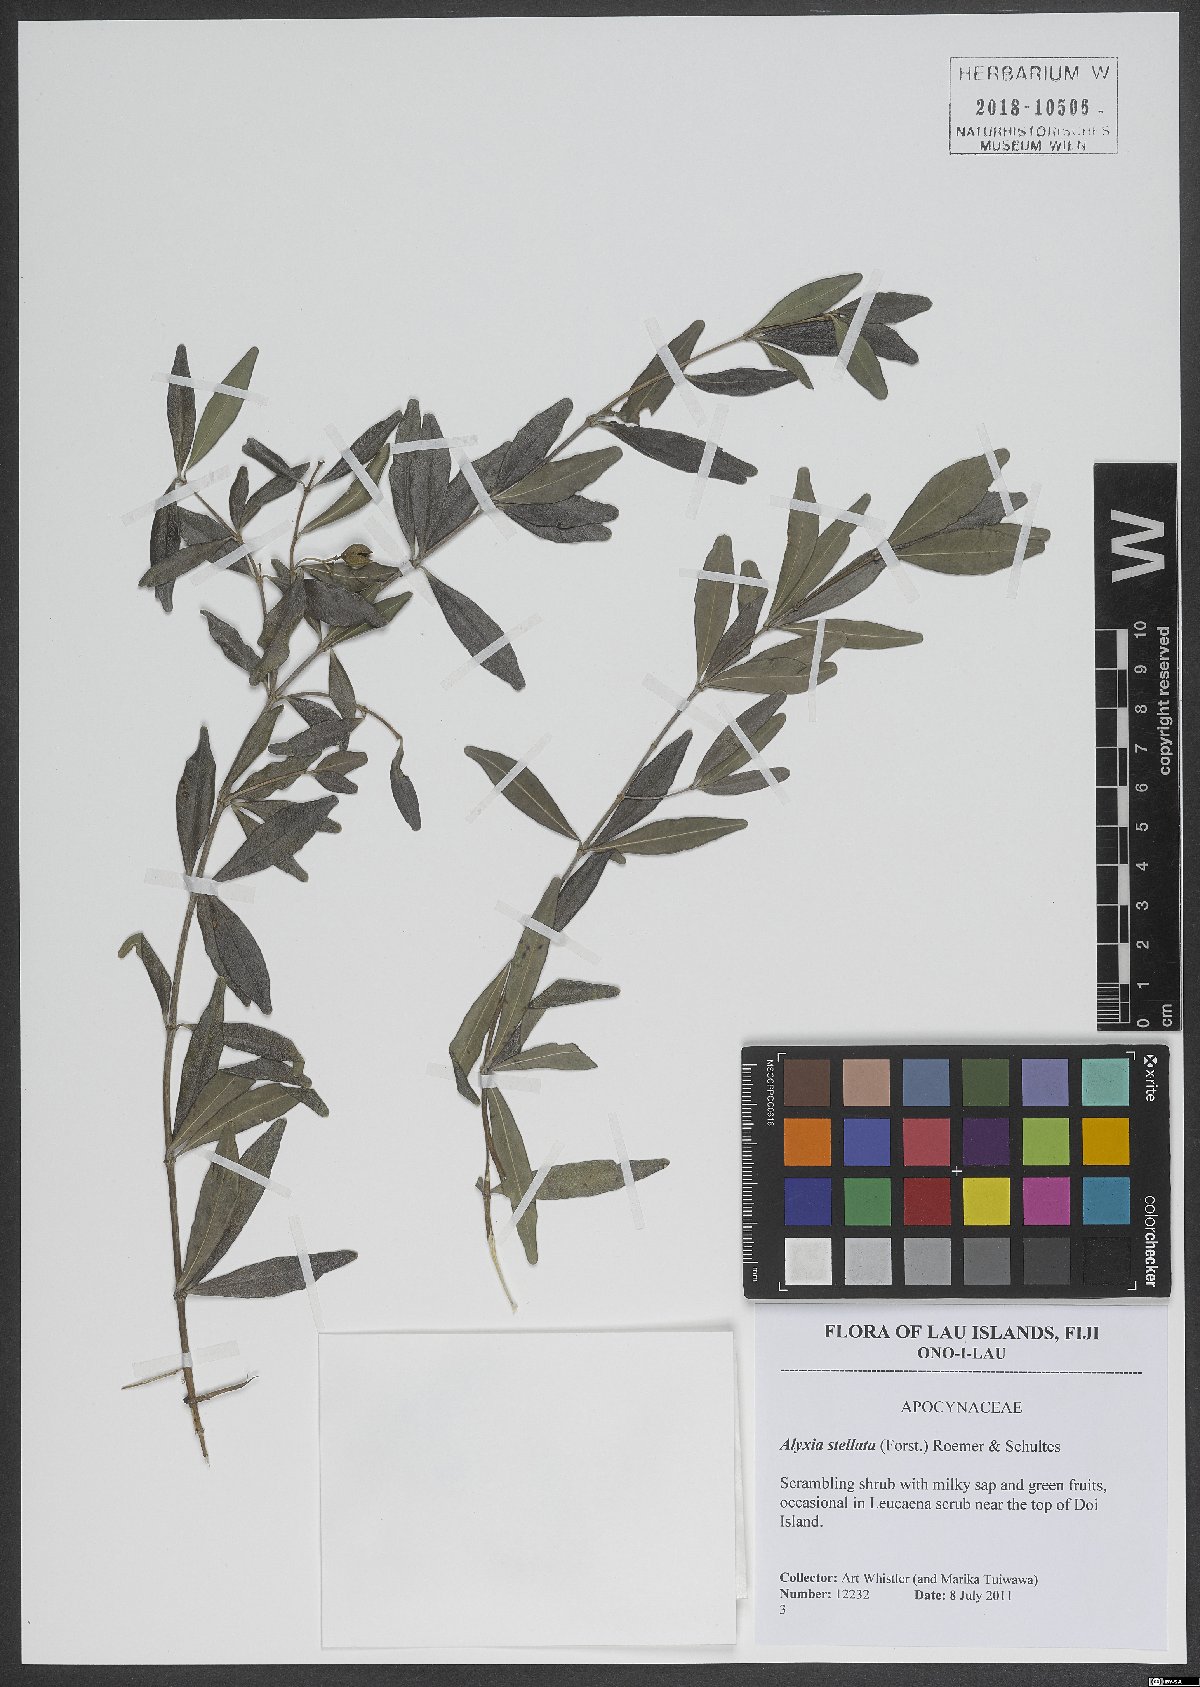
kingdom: Plantae
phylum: Tracheophyta
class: Magnoliopsida
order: Gentianales
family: Apocynaceae
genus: Alyxia
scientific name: Alyxia stellata
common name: Maile
